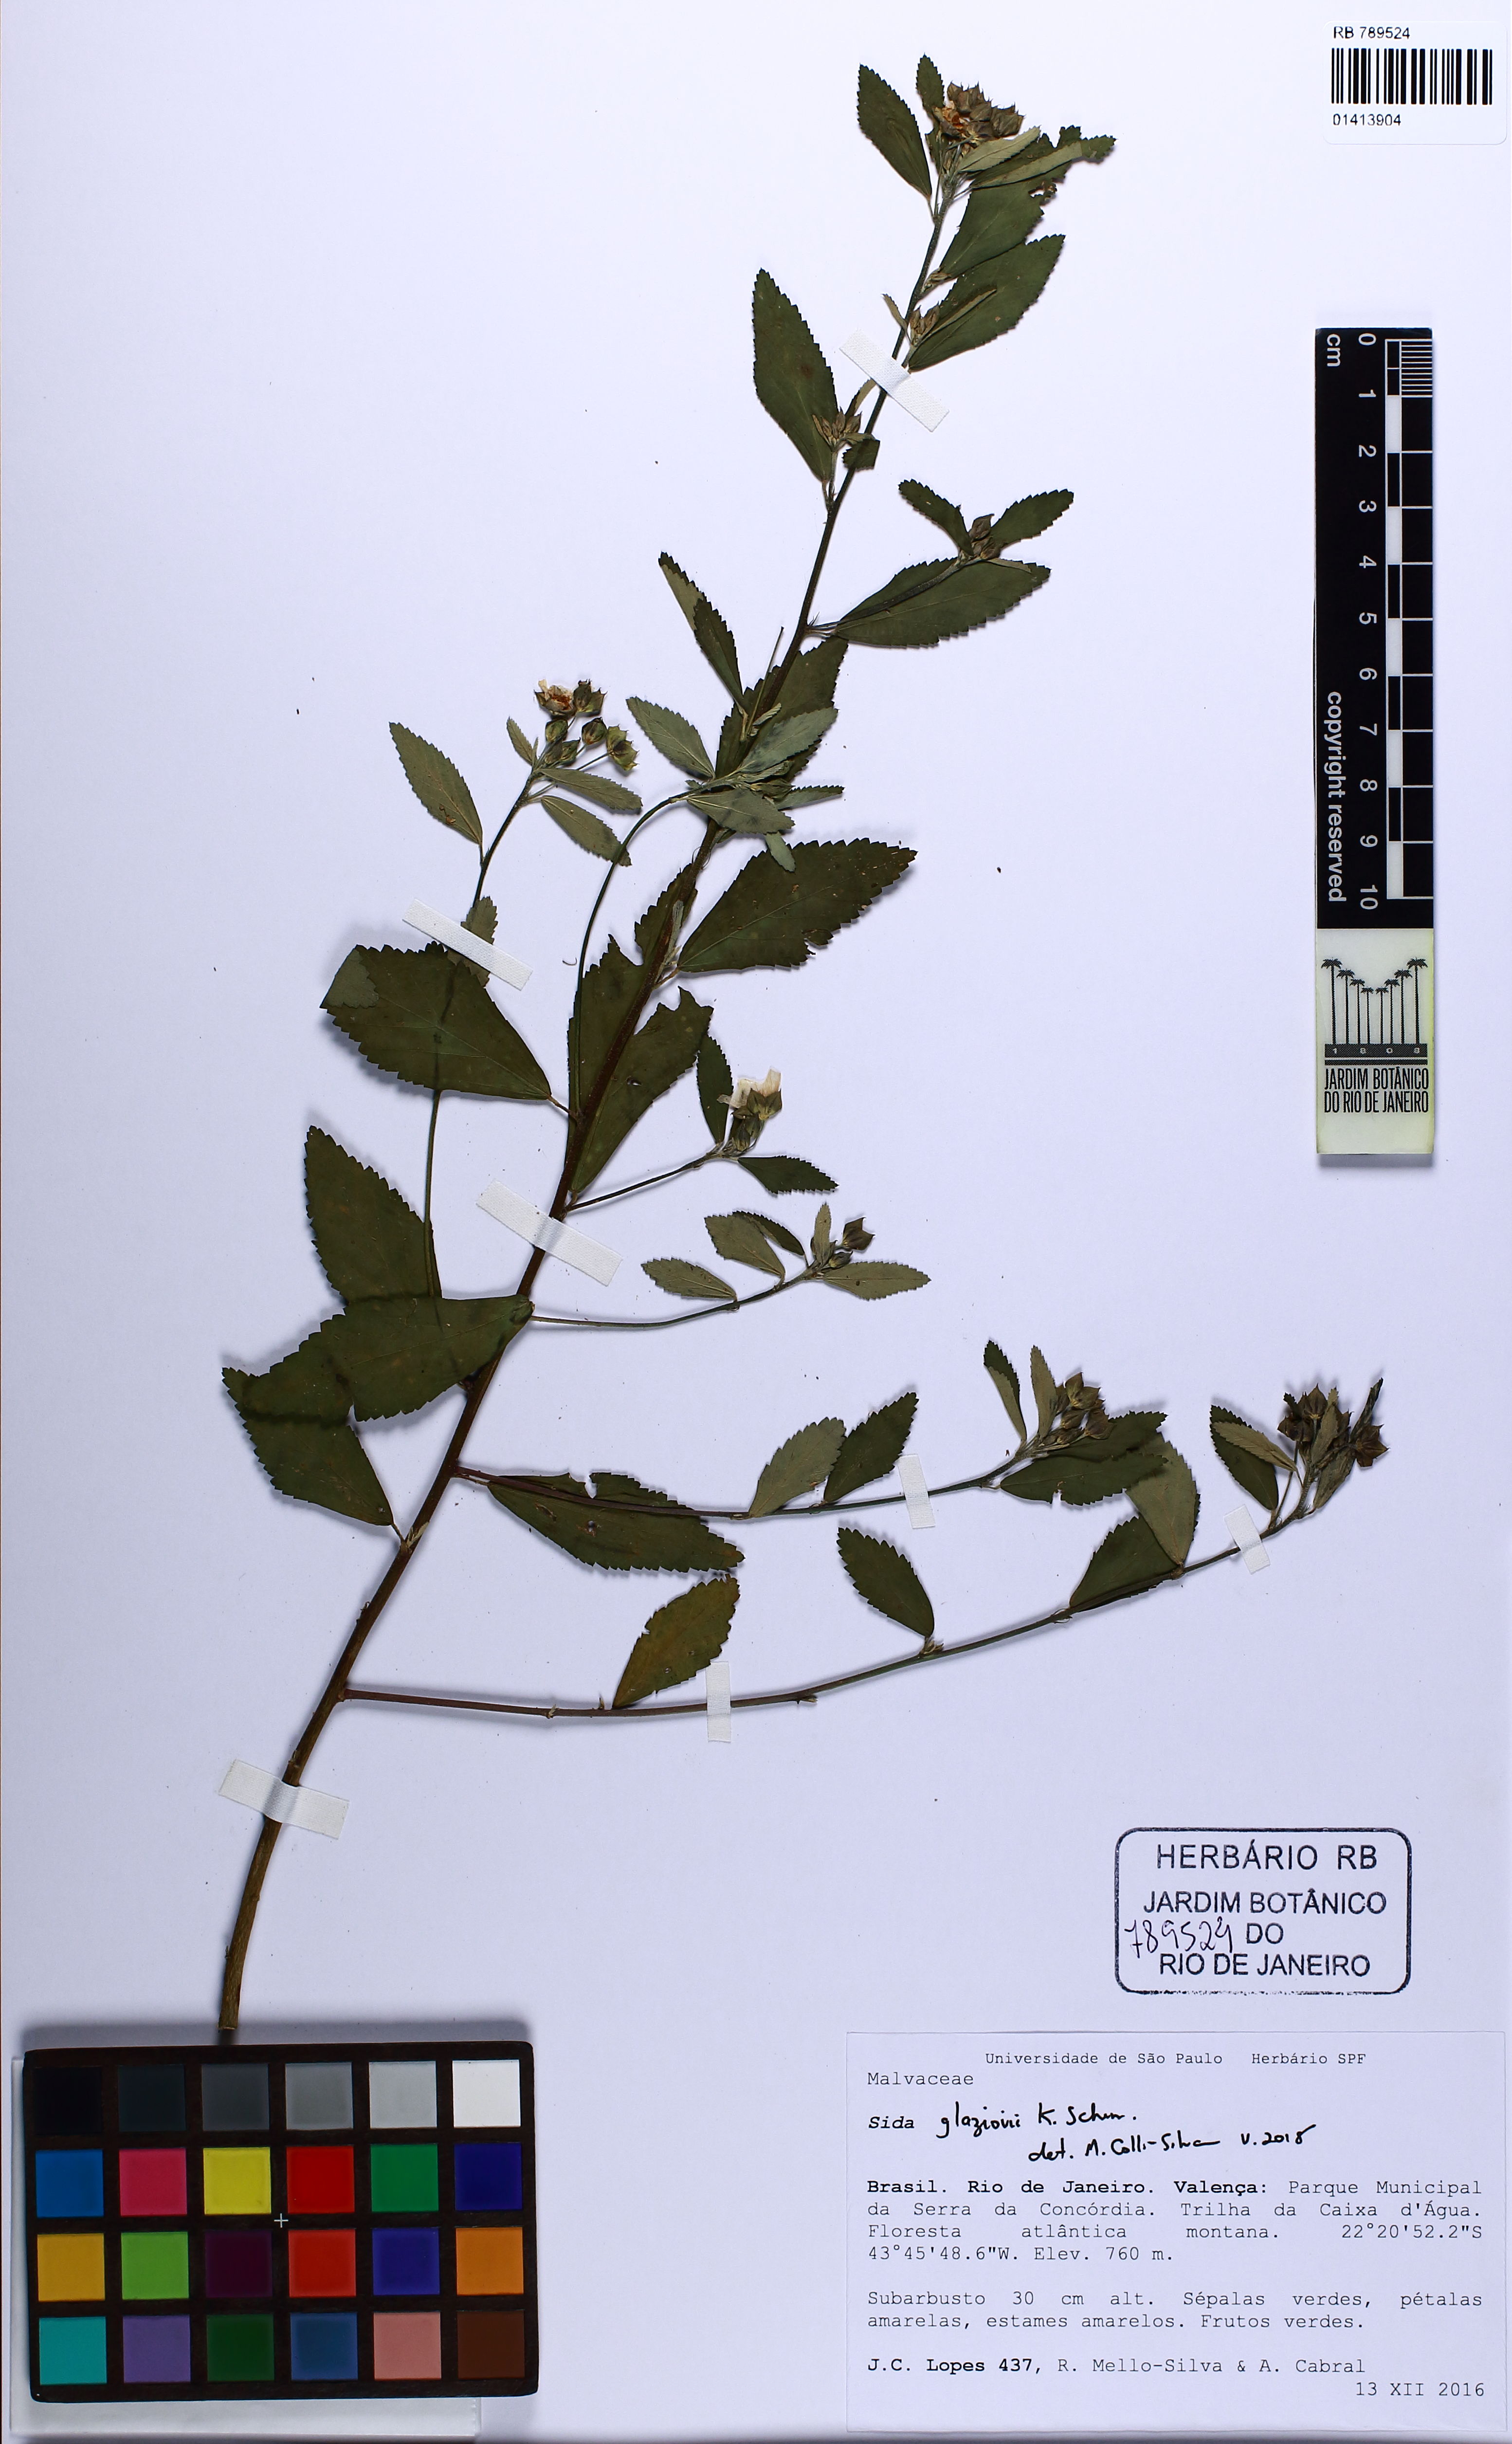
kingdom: Plantae
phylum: Tracheophyta
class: Magnoliopsida
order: Malvales
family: Malvaceae
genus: Sida
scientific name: Sida rhombifolia
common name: Queensland-hemp
